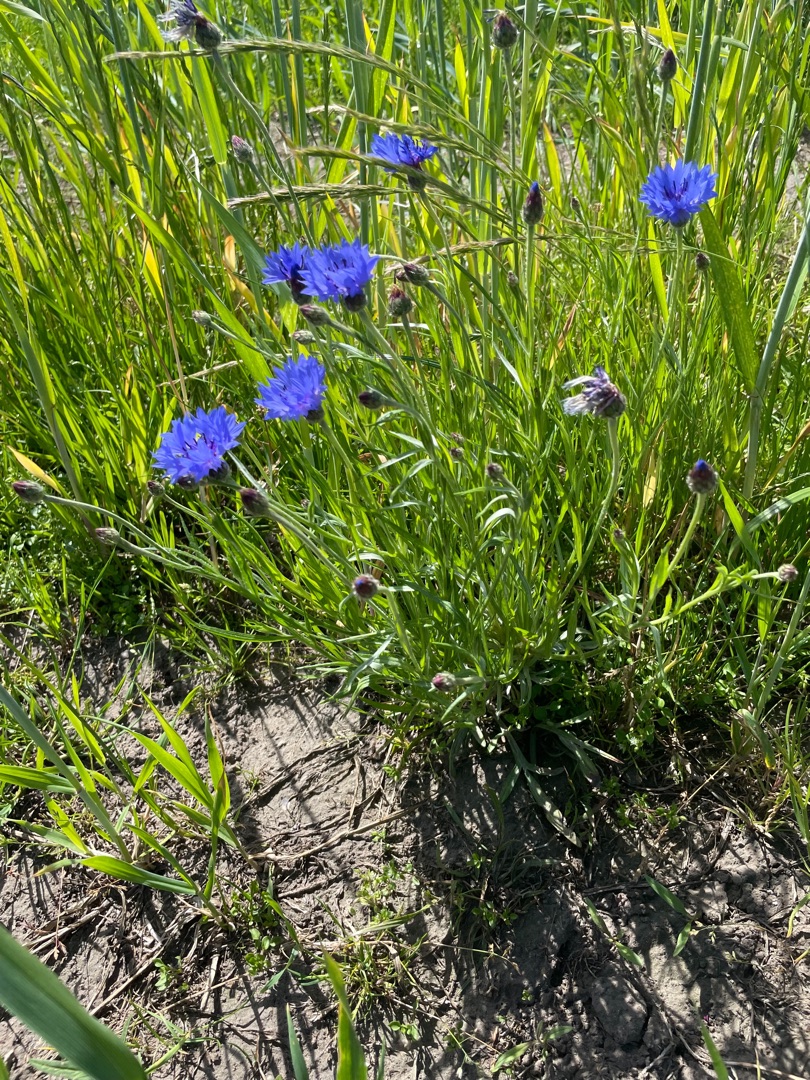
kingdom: Plantae
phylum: Tracheophyta
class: Magnoliopsida
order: Asterales
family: Asteraceae
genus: Centaurea
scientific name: Centaurea cyanus
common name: Kornblomst
